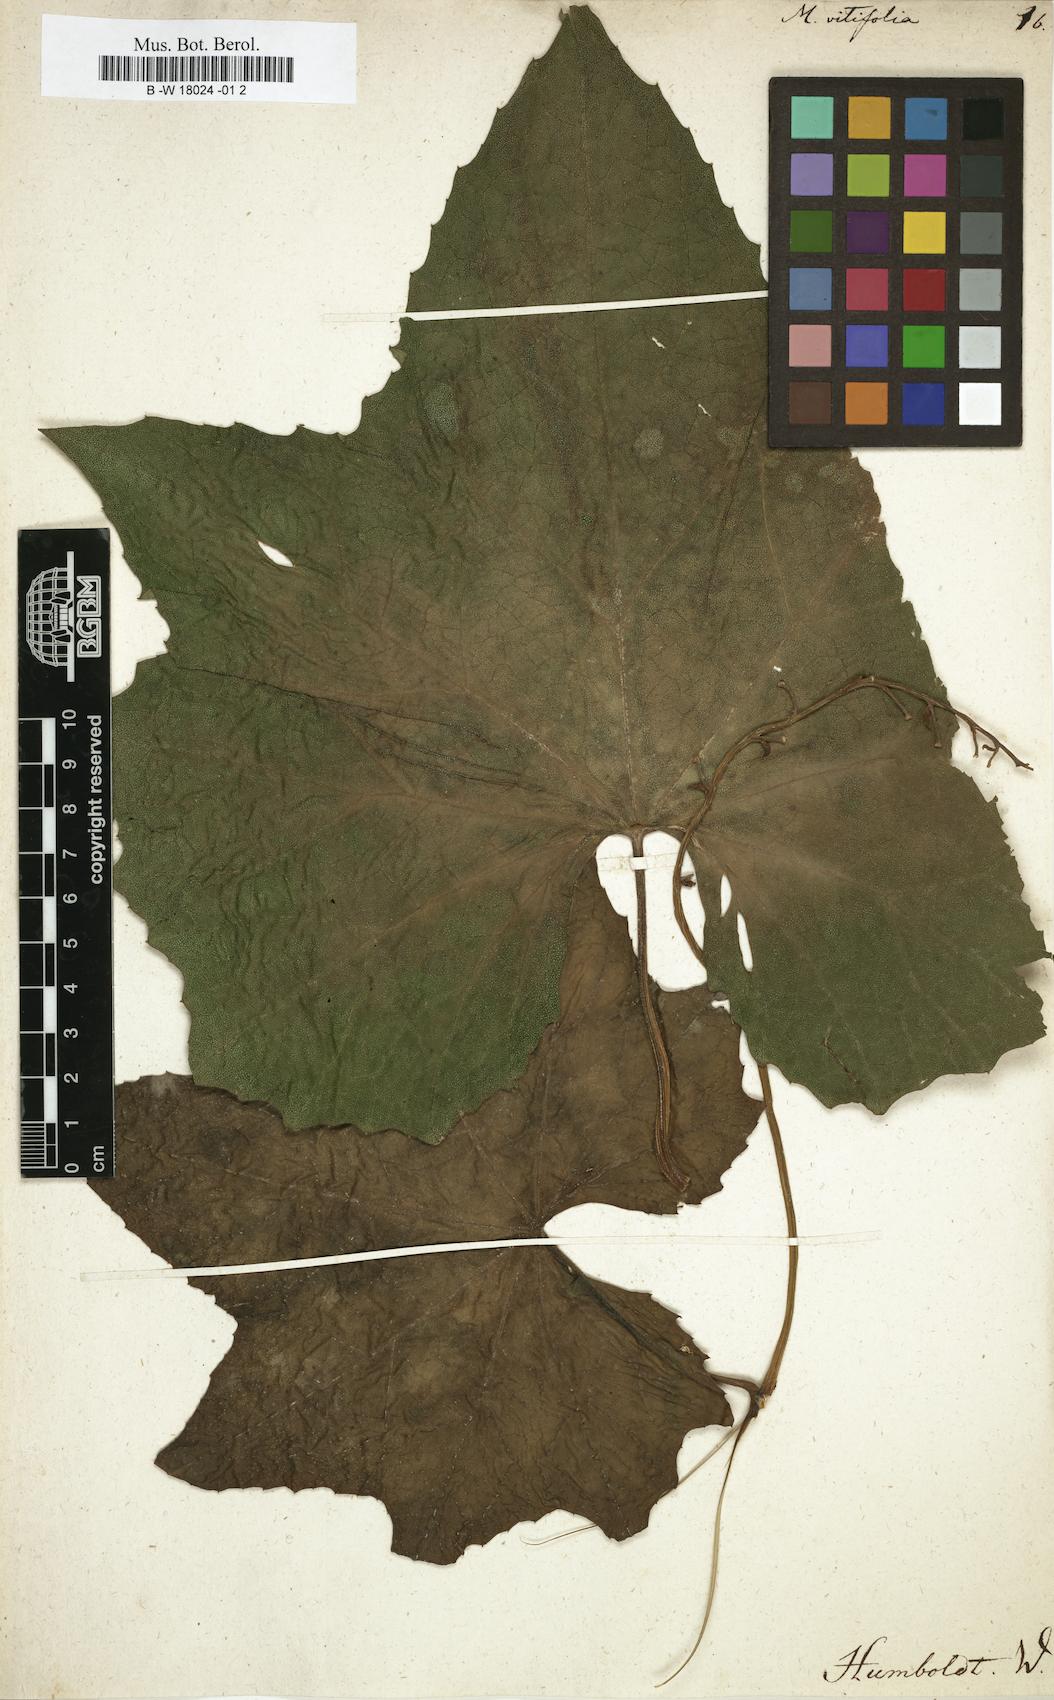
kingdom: Plantae
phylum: Tracheophyta
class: Magnoliopsida
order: Cucurbitales
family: Cucurbitaceae
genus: Momordica
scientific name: Momordica
